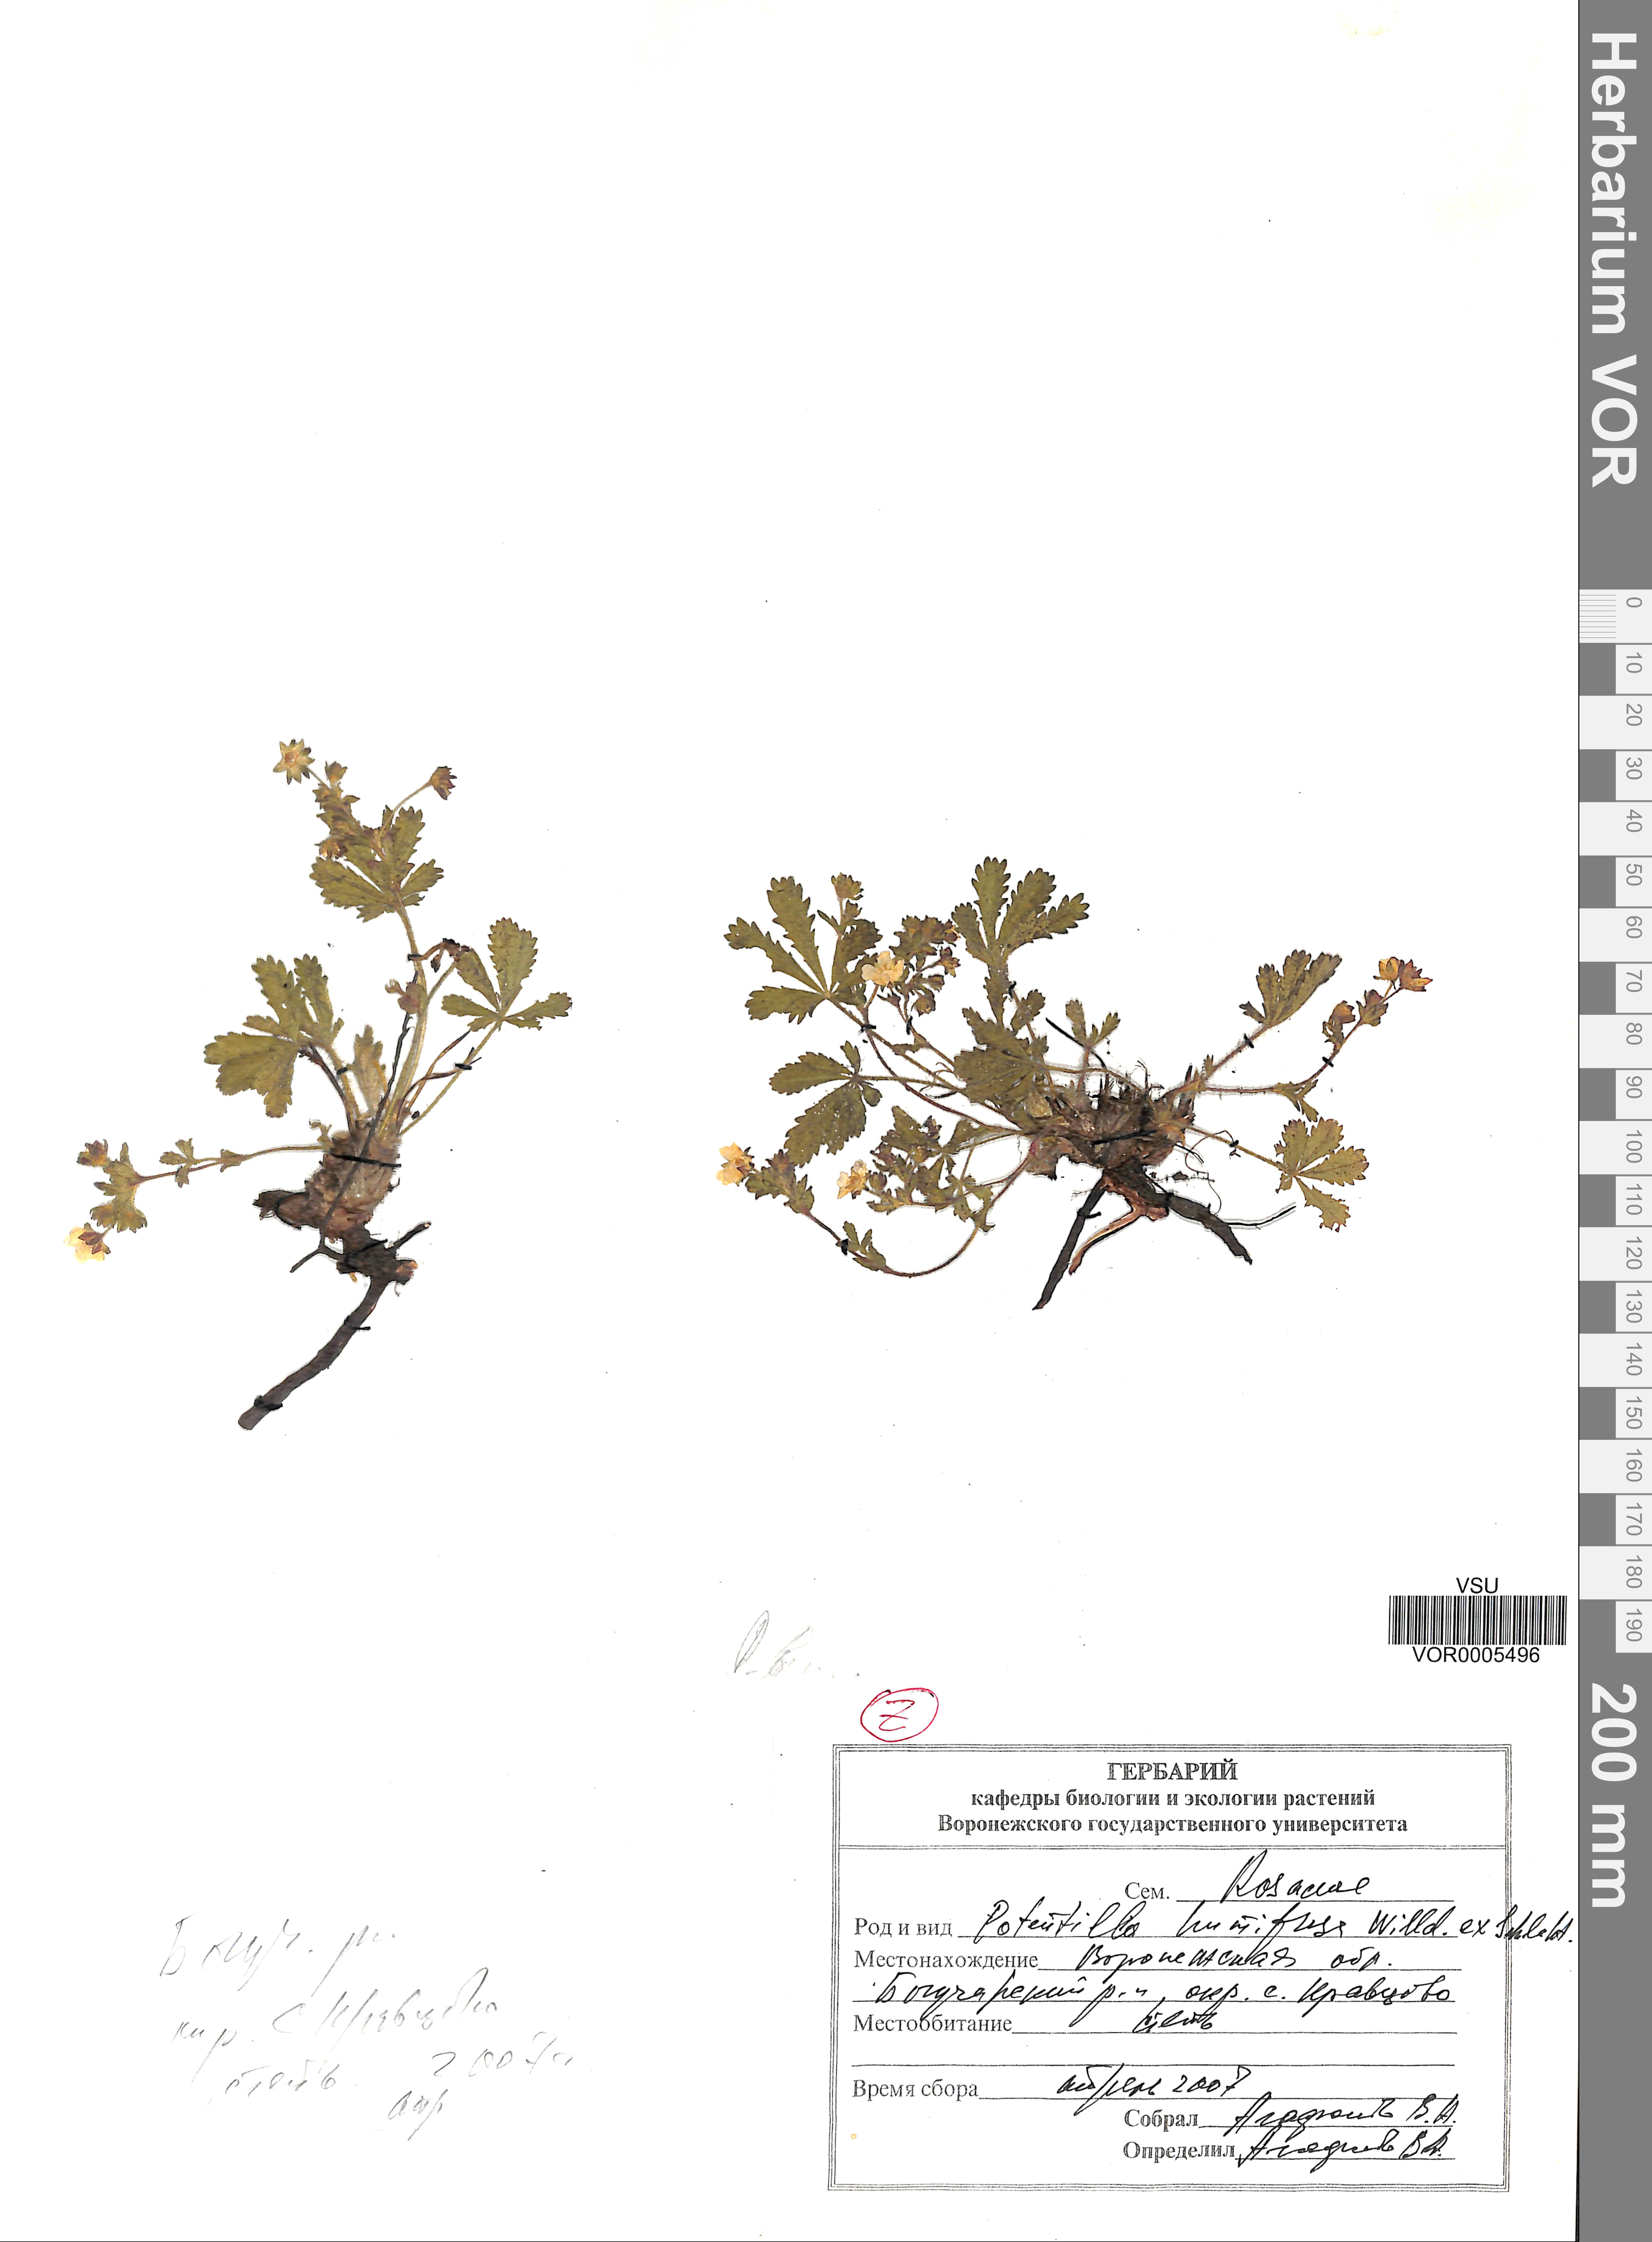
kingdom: Plantae
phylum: Tracheophyta
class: Magnoliopsida
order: Rosales
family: Rosaceae
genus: Potentilla
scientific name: Potentilla humifusa
